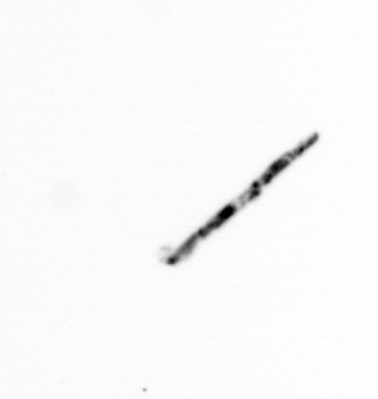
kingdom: Bacteria
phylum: Cyanobacteria
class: Cyanobacteriia
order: Cyanobacteriales
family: Microcoleaceae
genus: Trichodesmium
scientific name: Trichodesmium
